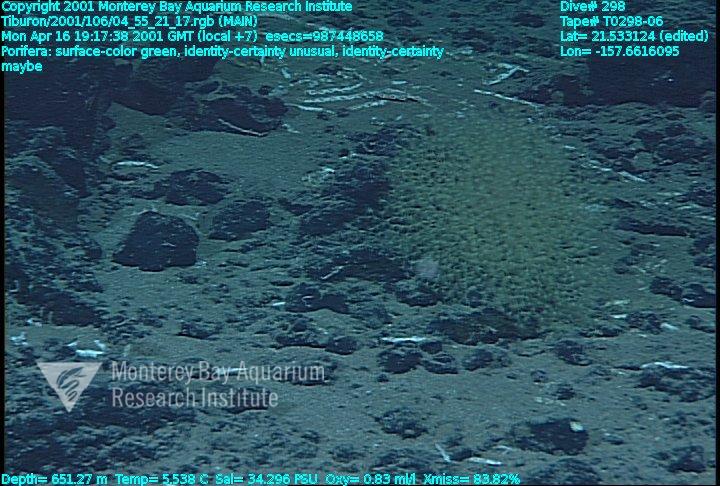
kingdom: Animalia
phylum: Porifera
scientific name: Porifera
